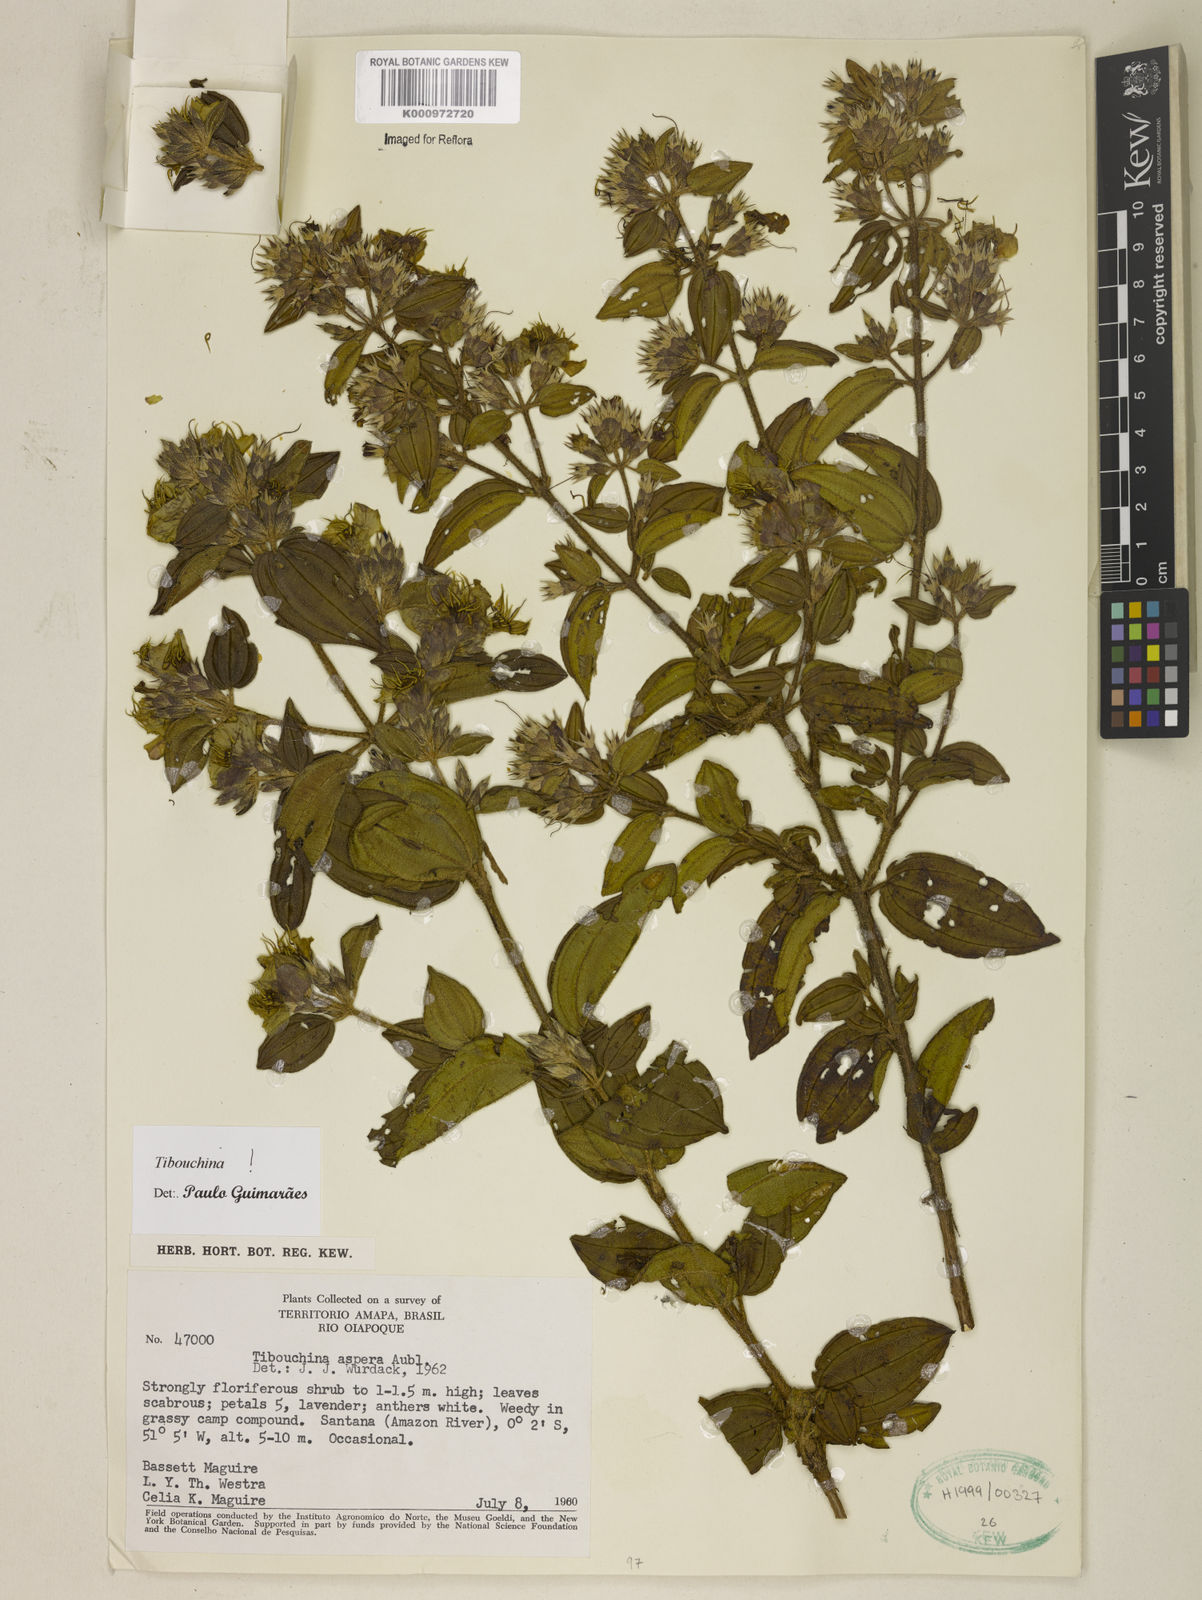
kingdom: Plantae
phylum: Tracheophyta
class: Magnoliopsida
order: Myrtales
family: Melastomataceae
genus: Tibouchina
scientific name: Tibouchina aspera
